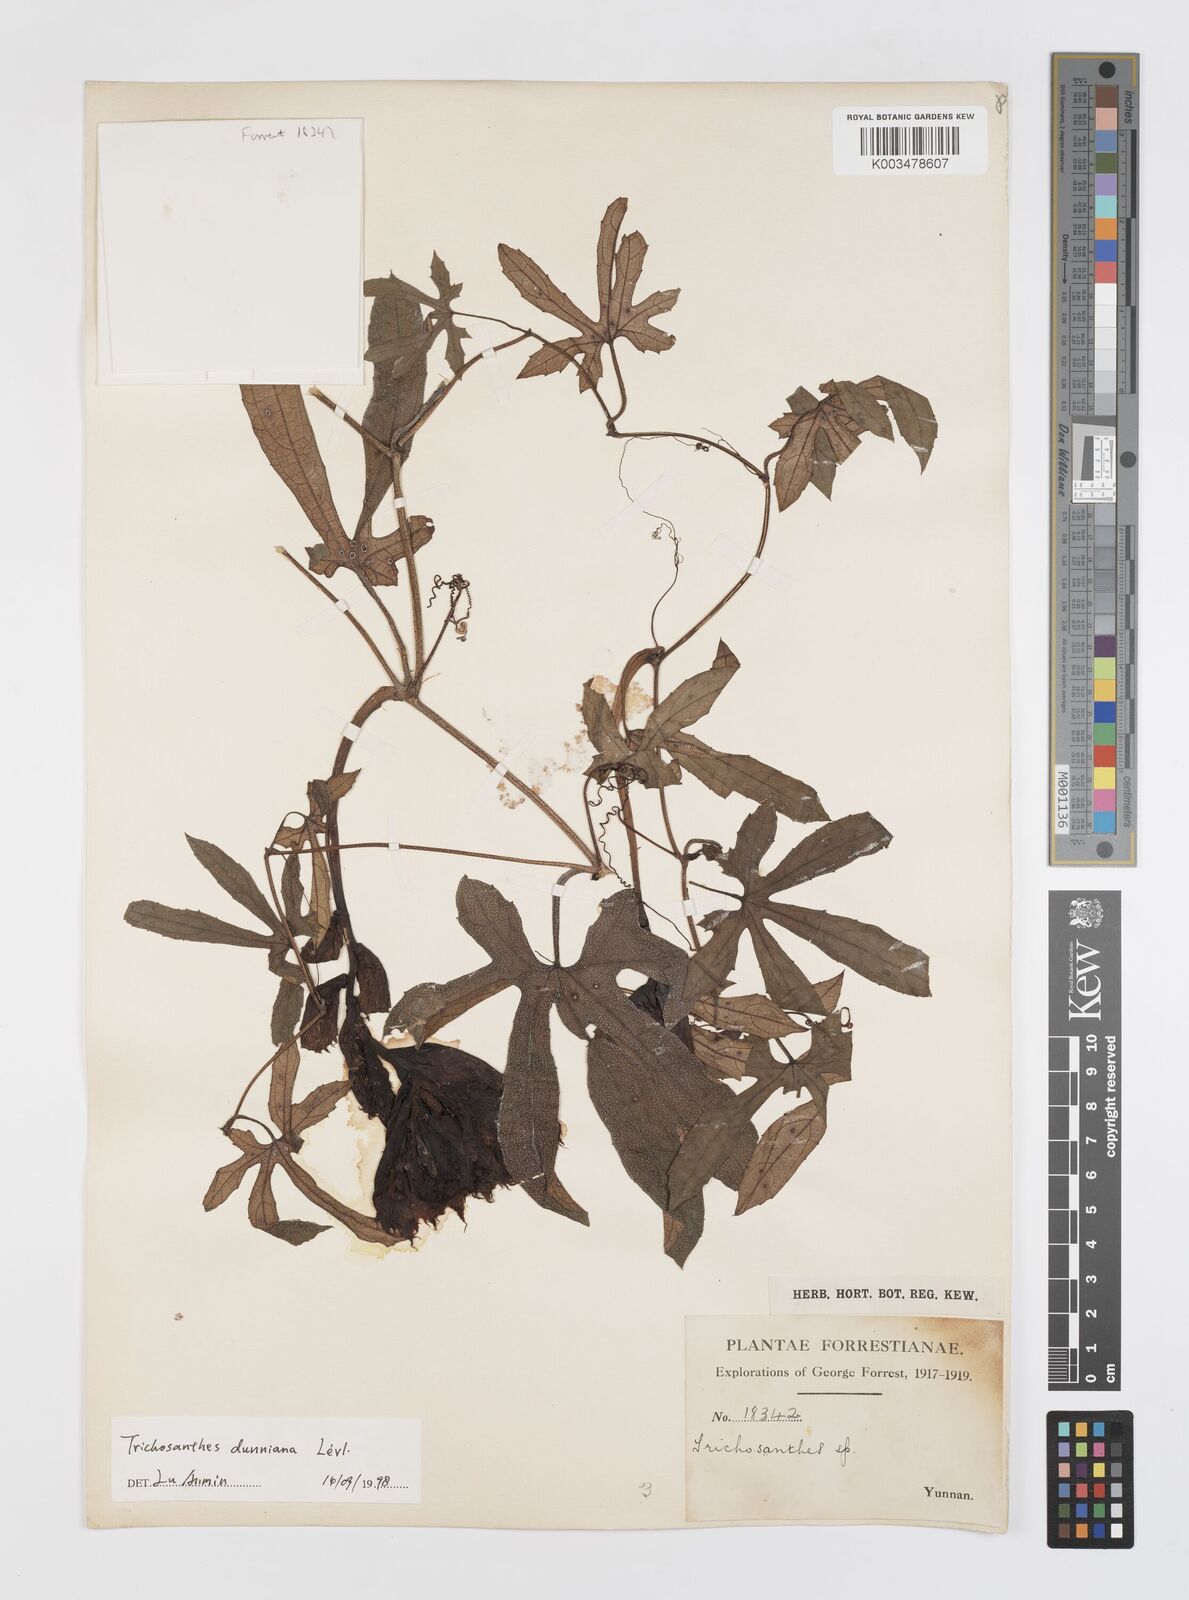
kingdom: Plantae
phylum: Tracheophyta
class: Magnoliopsida
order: Cucurbitales
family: Cucurbitaceae
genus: Trichosanthes
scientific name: Trichosanthes dunniana
